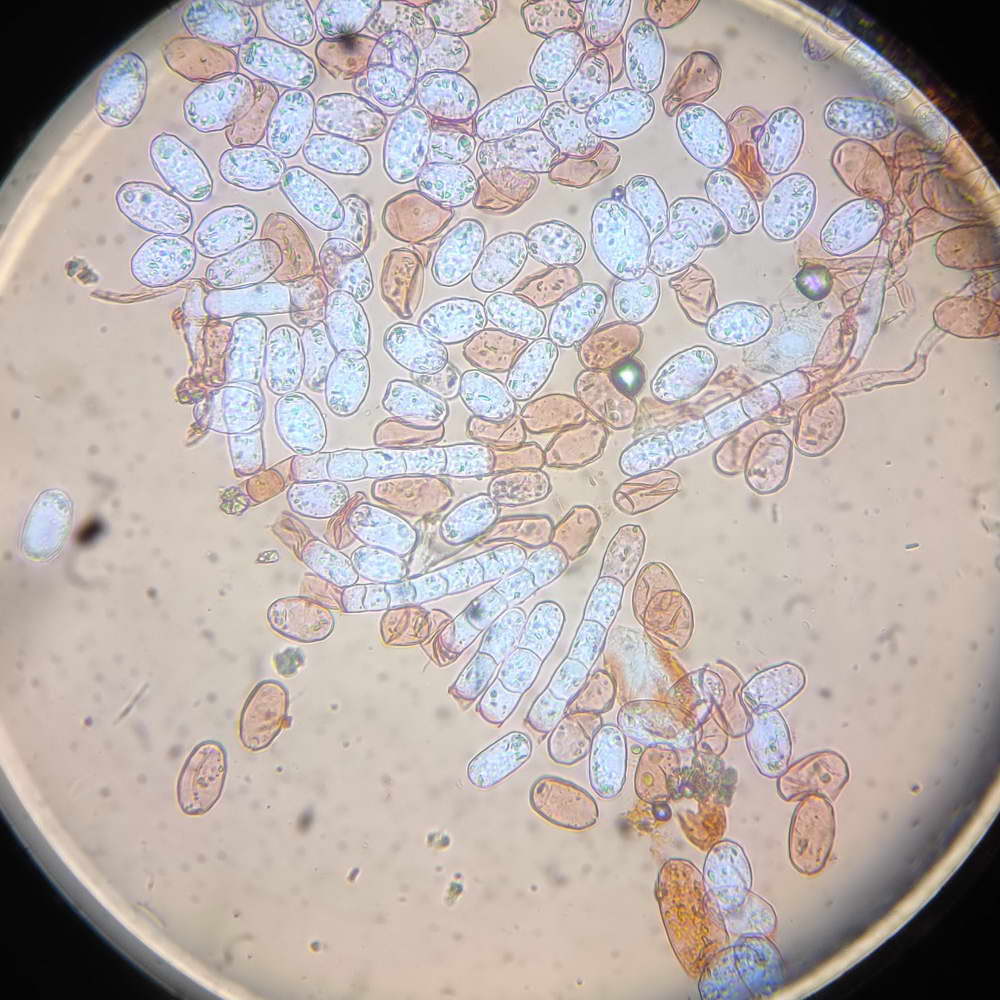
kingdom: Fungi
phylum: Ascomycota
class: Leotiomycetes
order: Helotiales
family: Erysiphaceae
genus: Podosphaera
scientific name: Podosphaera erigerontis-canadensis
